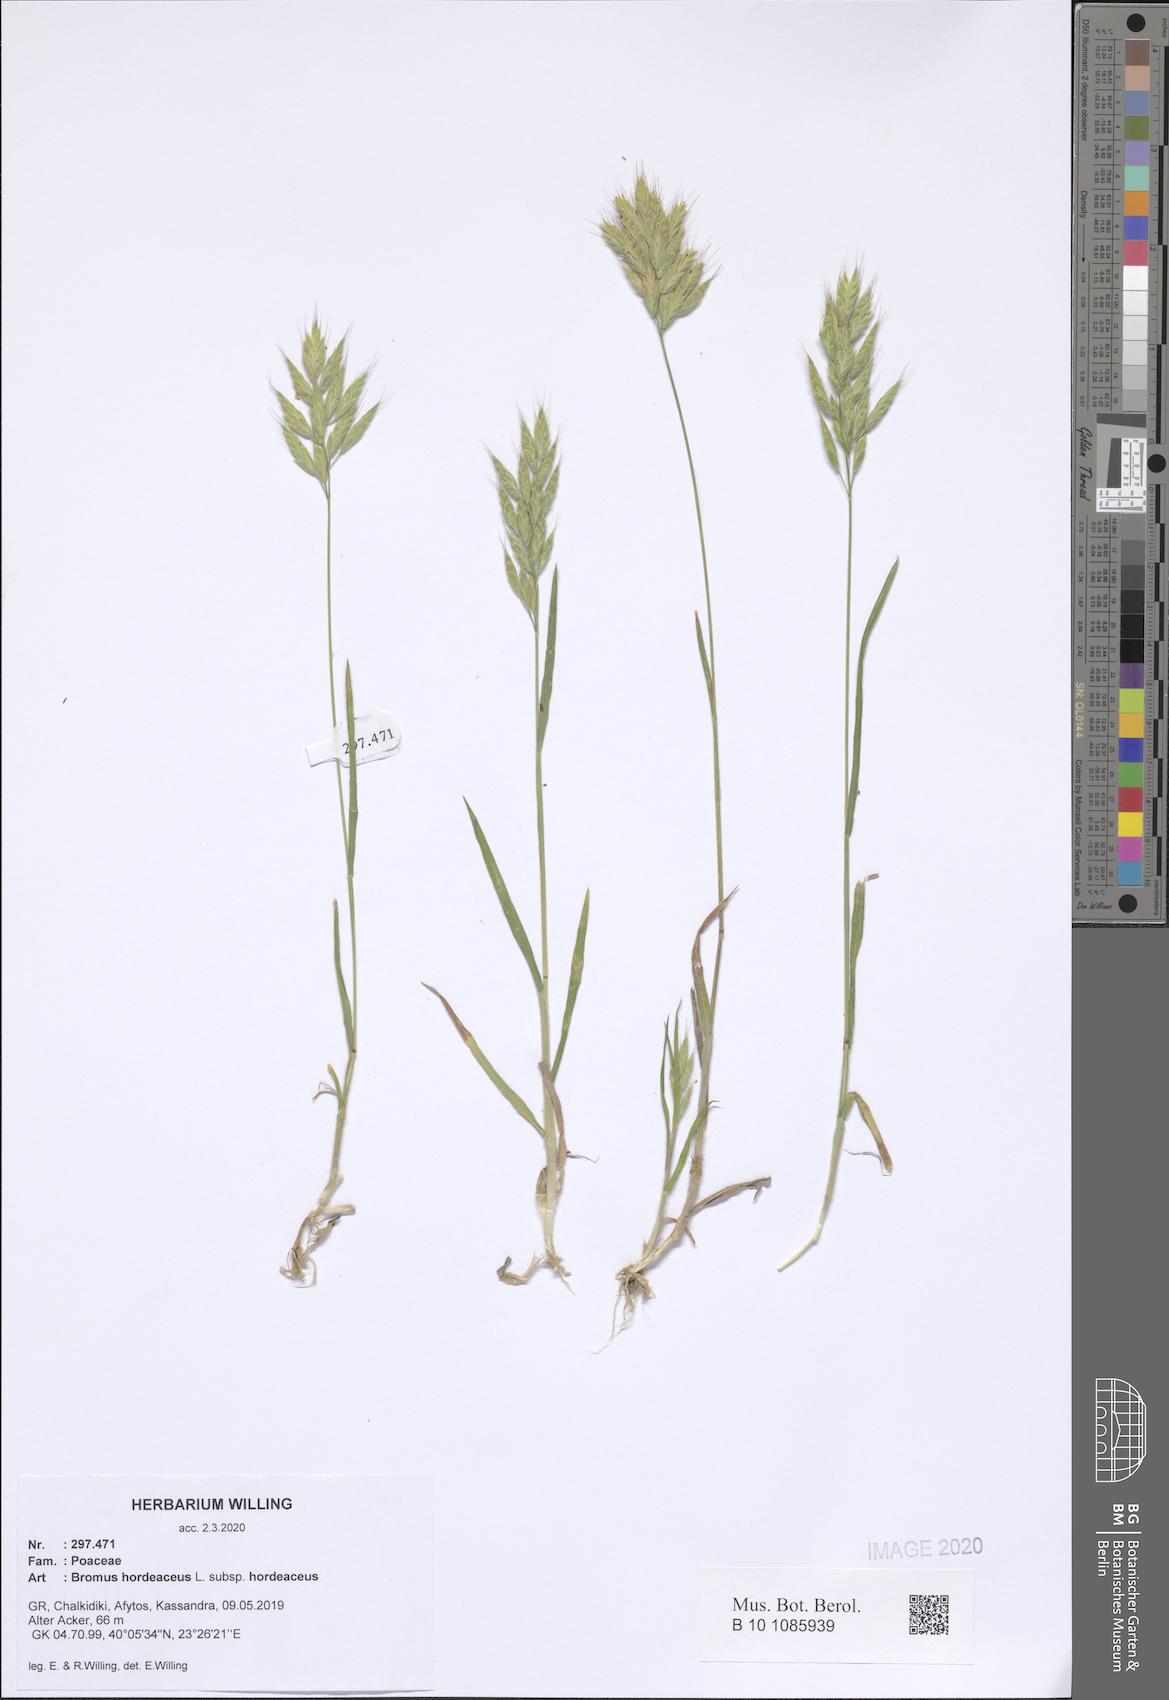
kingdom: Plantae
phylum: Tracheophyta
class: Liliopsida
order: Poales
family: Poaceae
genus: Bromus
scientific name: Bromus hordeaceus
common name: Soft brome
